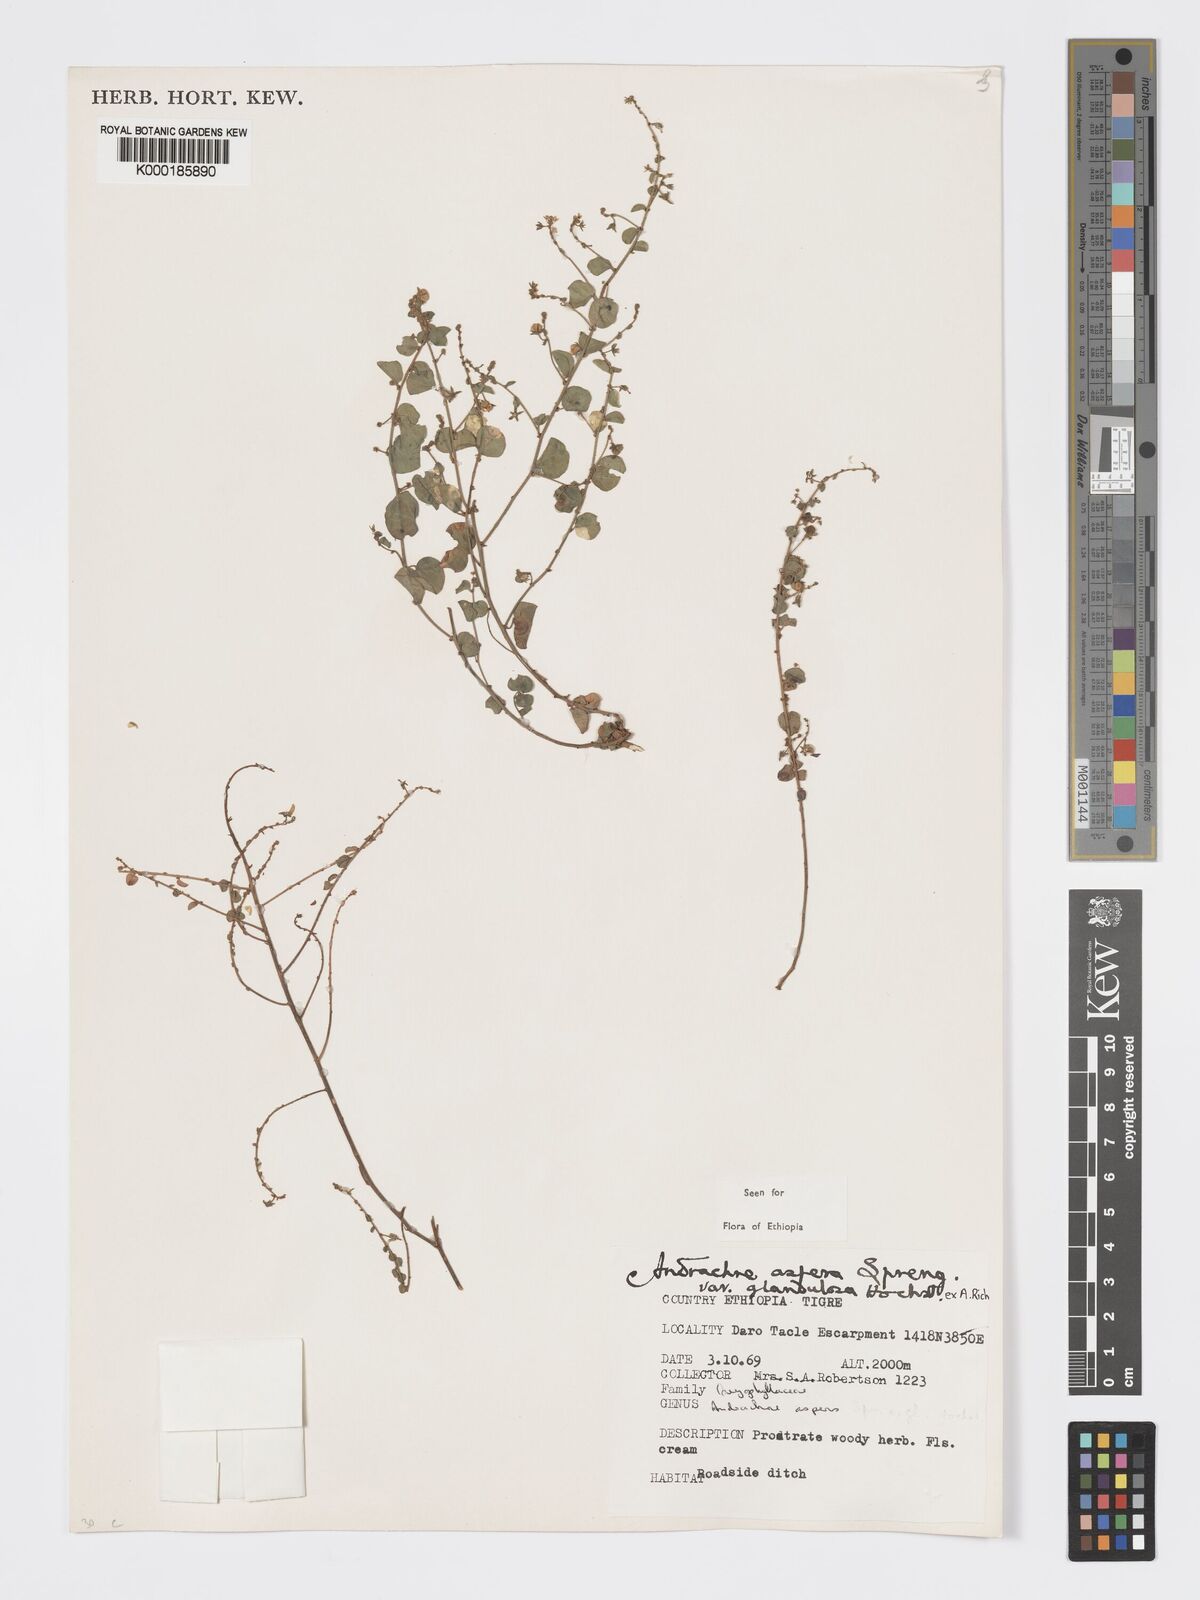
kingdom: Plantae
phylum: Tracheophyta
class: Magnoliopsida
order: Malpighiales
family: Phyllanthaceae
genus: Andrachne
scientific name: Andrachne aspera
